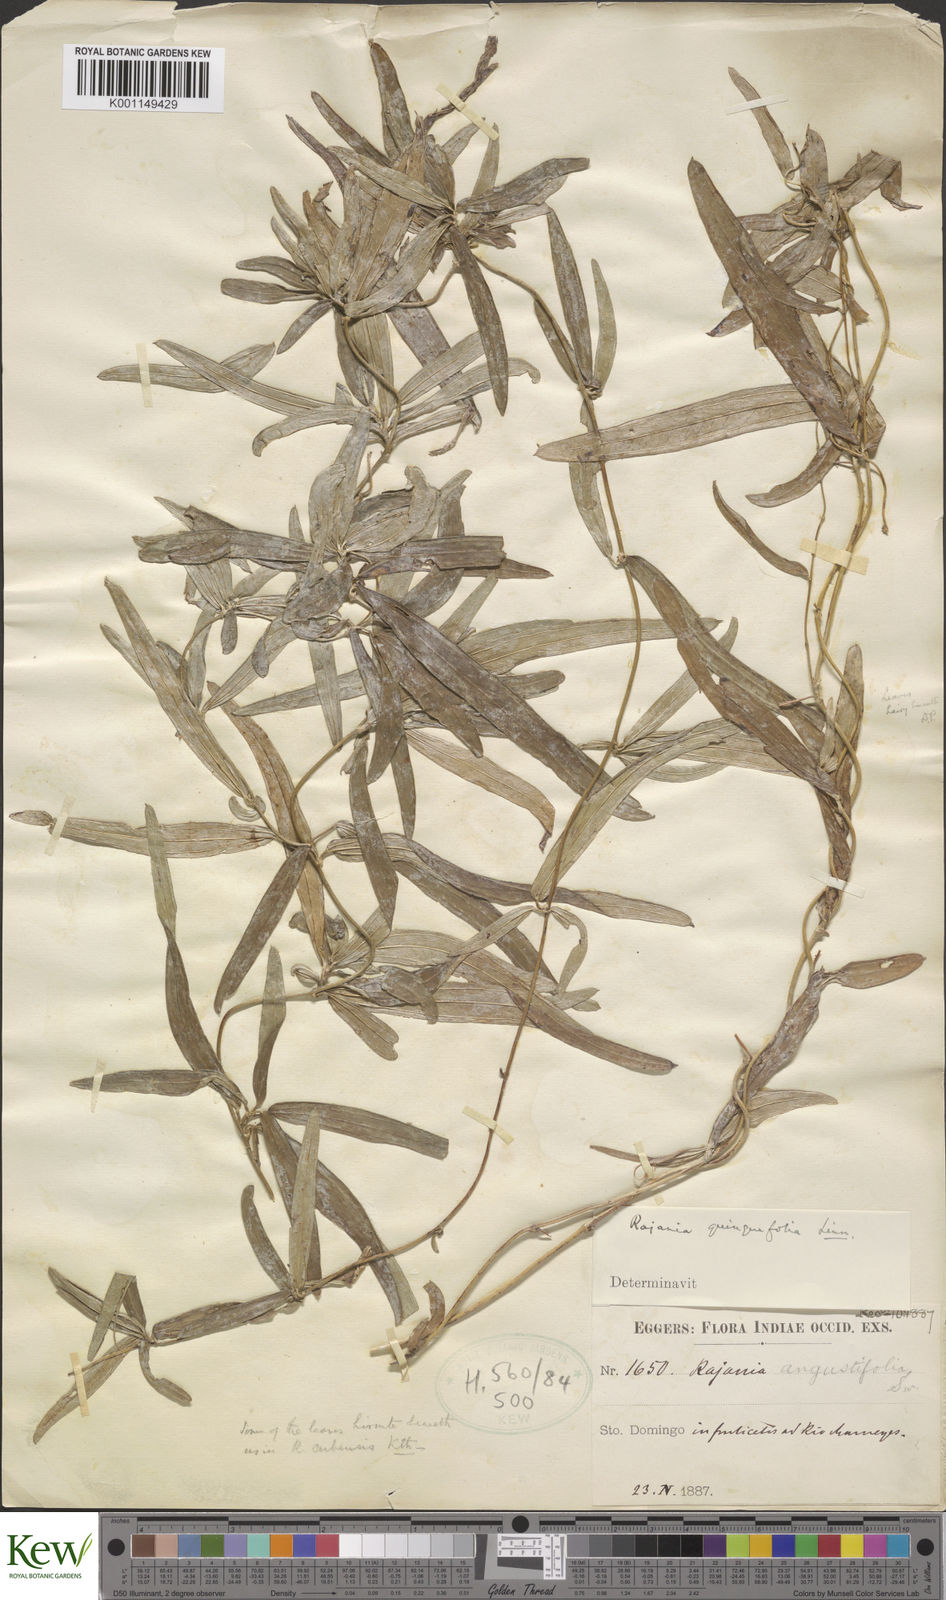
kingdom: Plantae
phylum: Tracheophyta
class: Liliopsida
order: Dioscoreales
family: Dioscoreaceae
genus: Dioscorea
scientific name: Dioscorea
